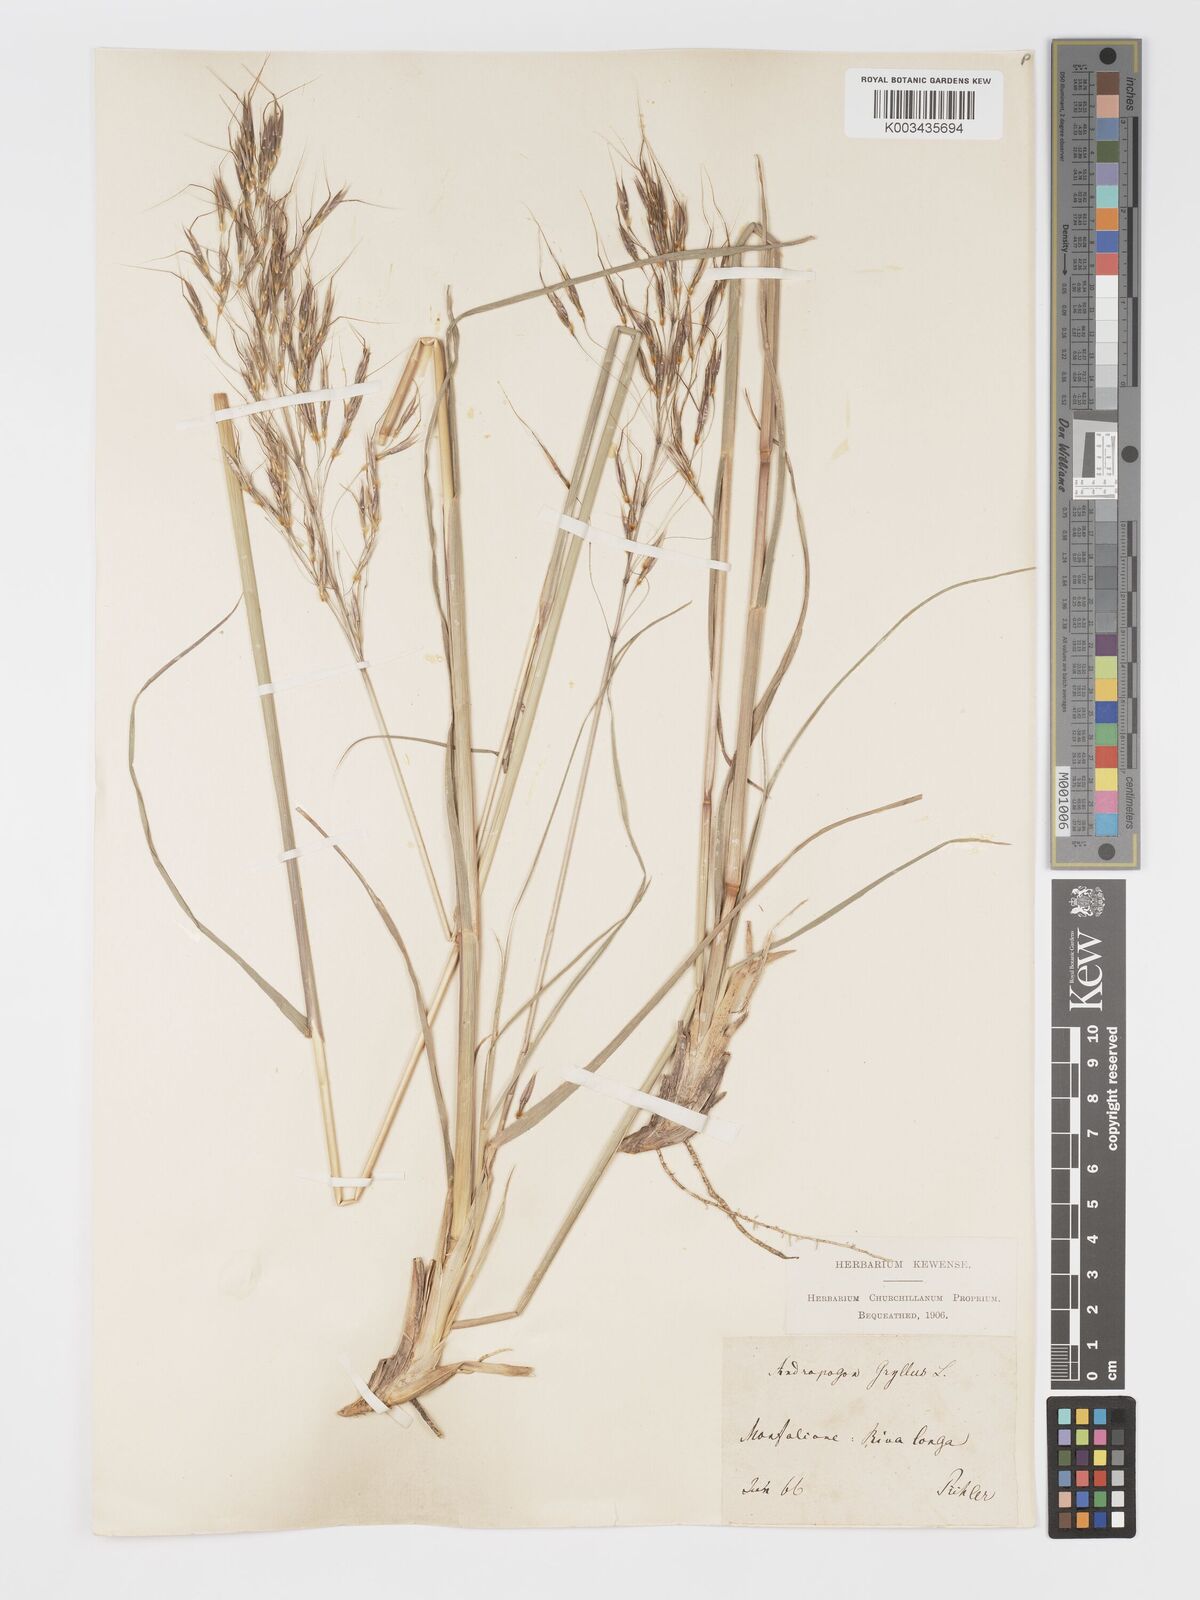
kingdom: Plantae
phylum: Tracheophyta
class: Liliopsida
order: Poales
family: Poaceae
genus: Chrysopogon
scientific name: Chrysopogon gryllus
